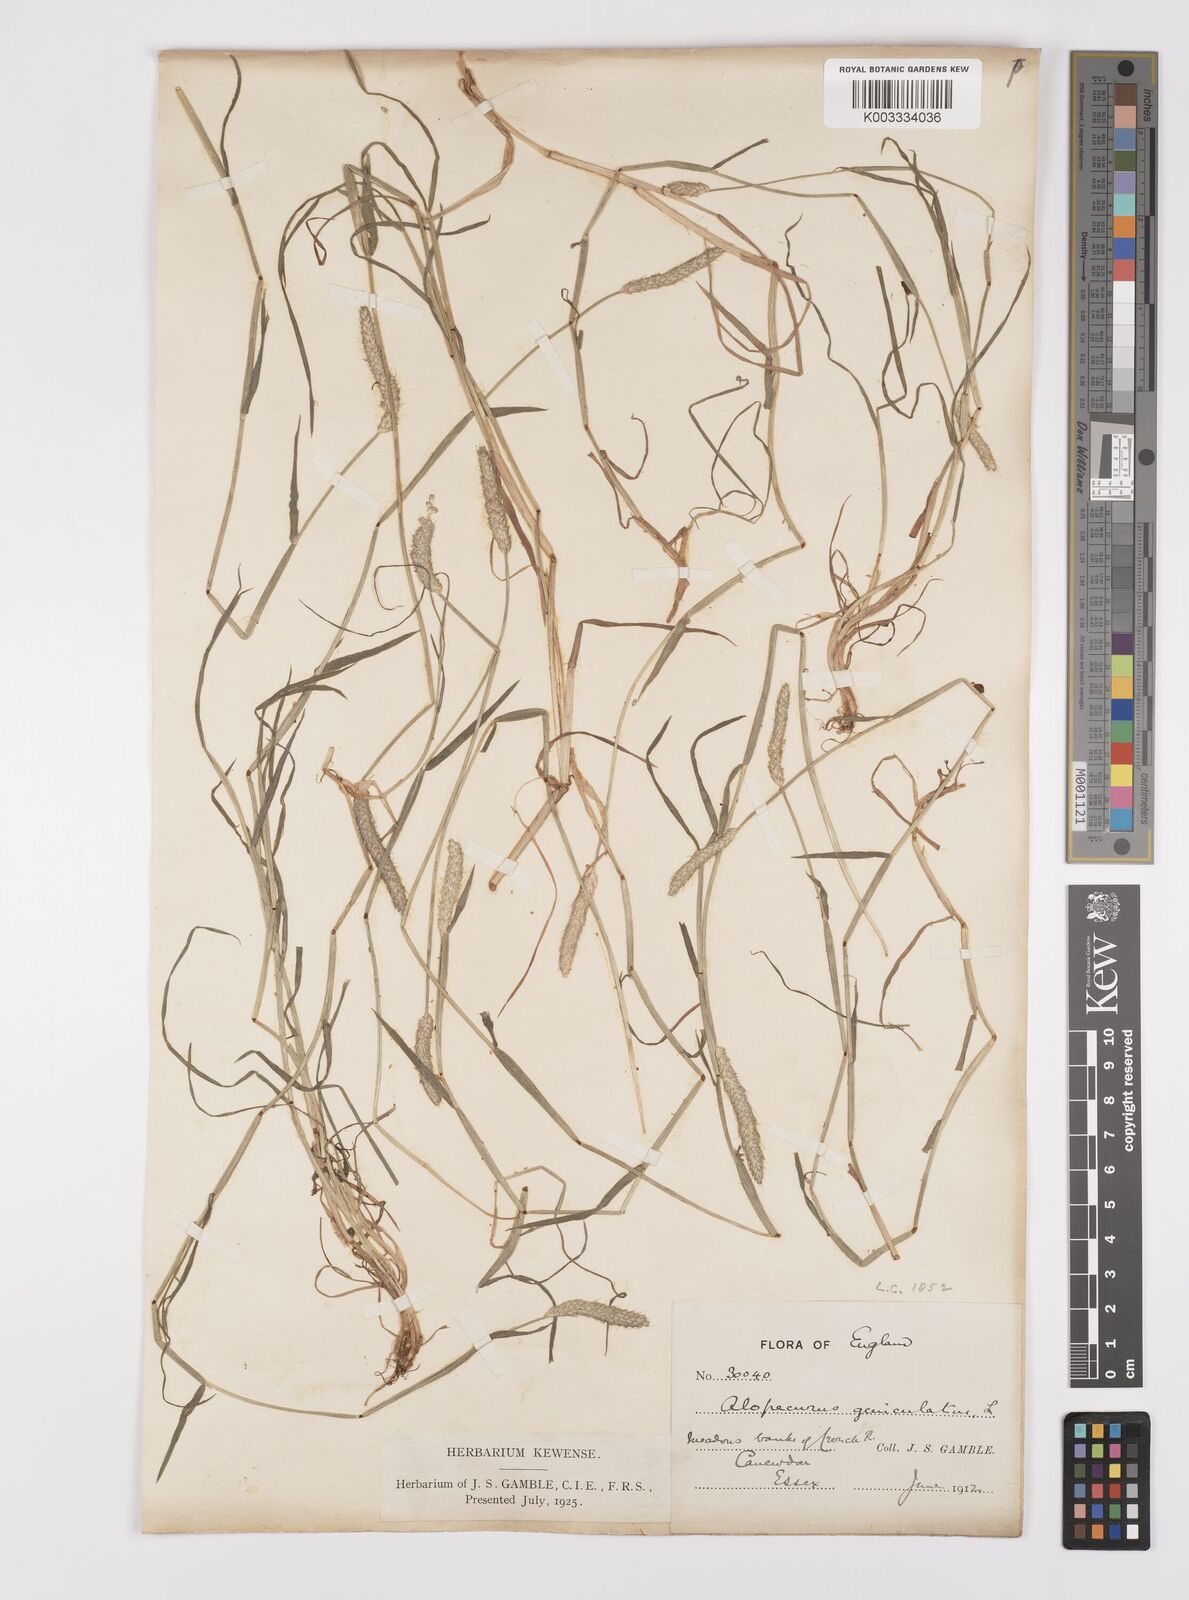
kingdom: Plantae
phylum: Tracheophyta
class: Liliopsida
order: Poales
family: Poaceae
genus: Alopecurus
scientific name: Alopecurus geniculatus
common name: Water foxtail
